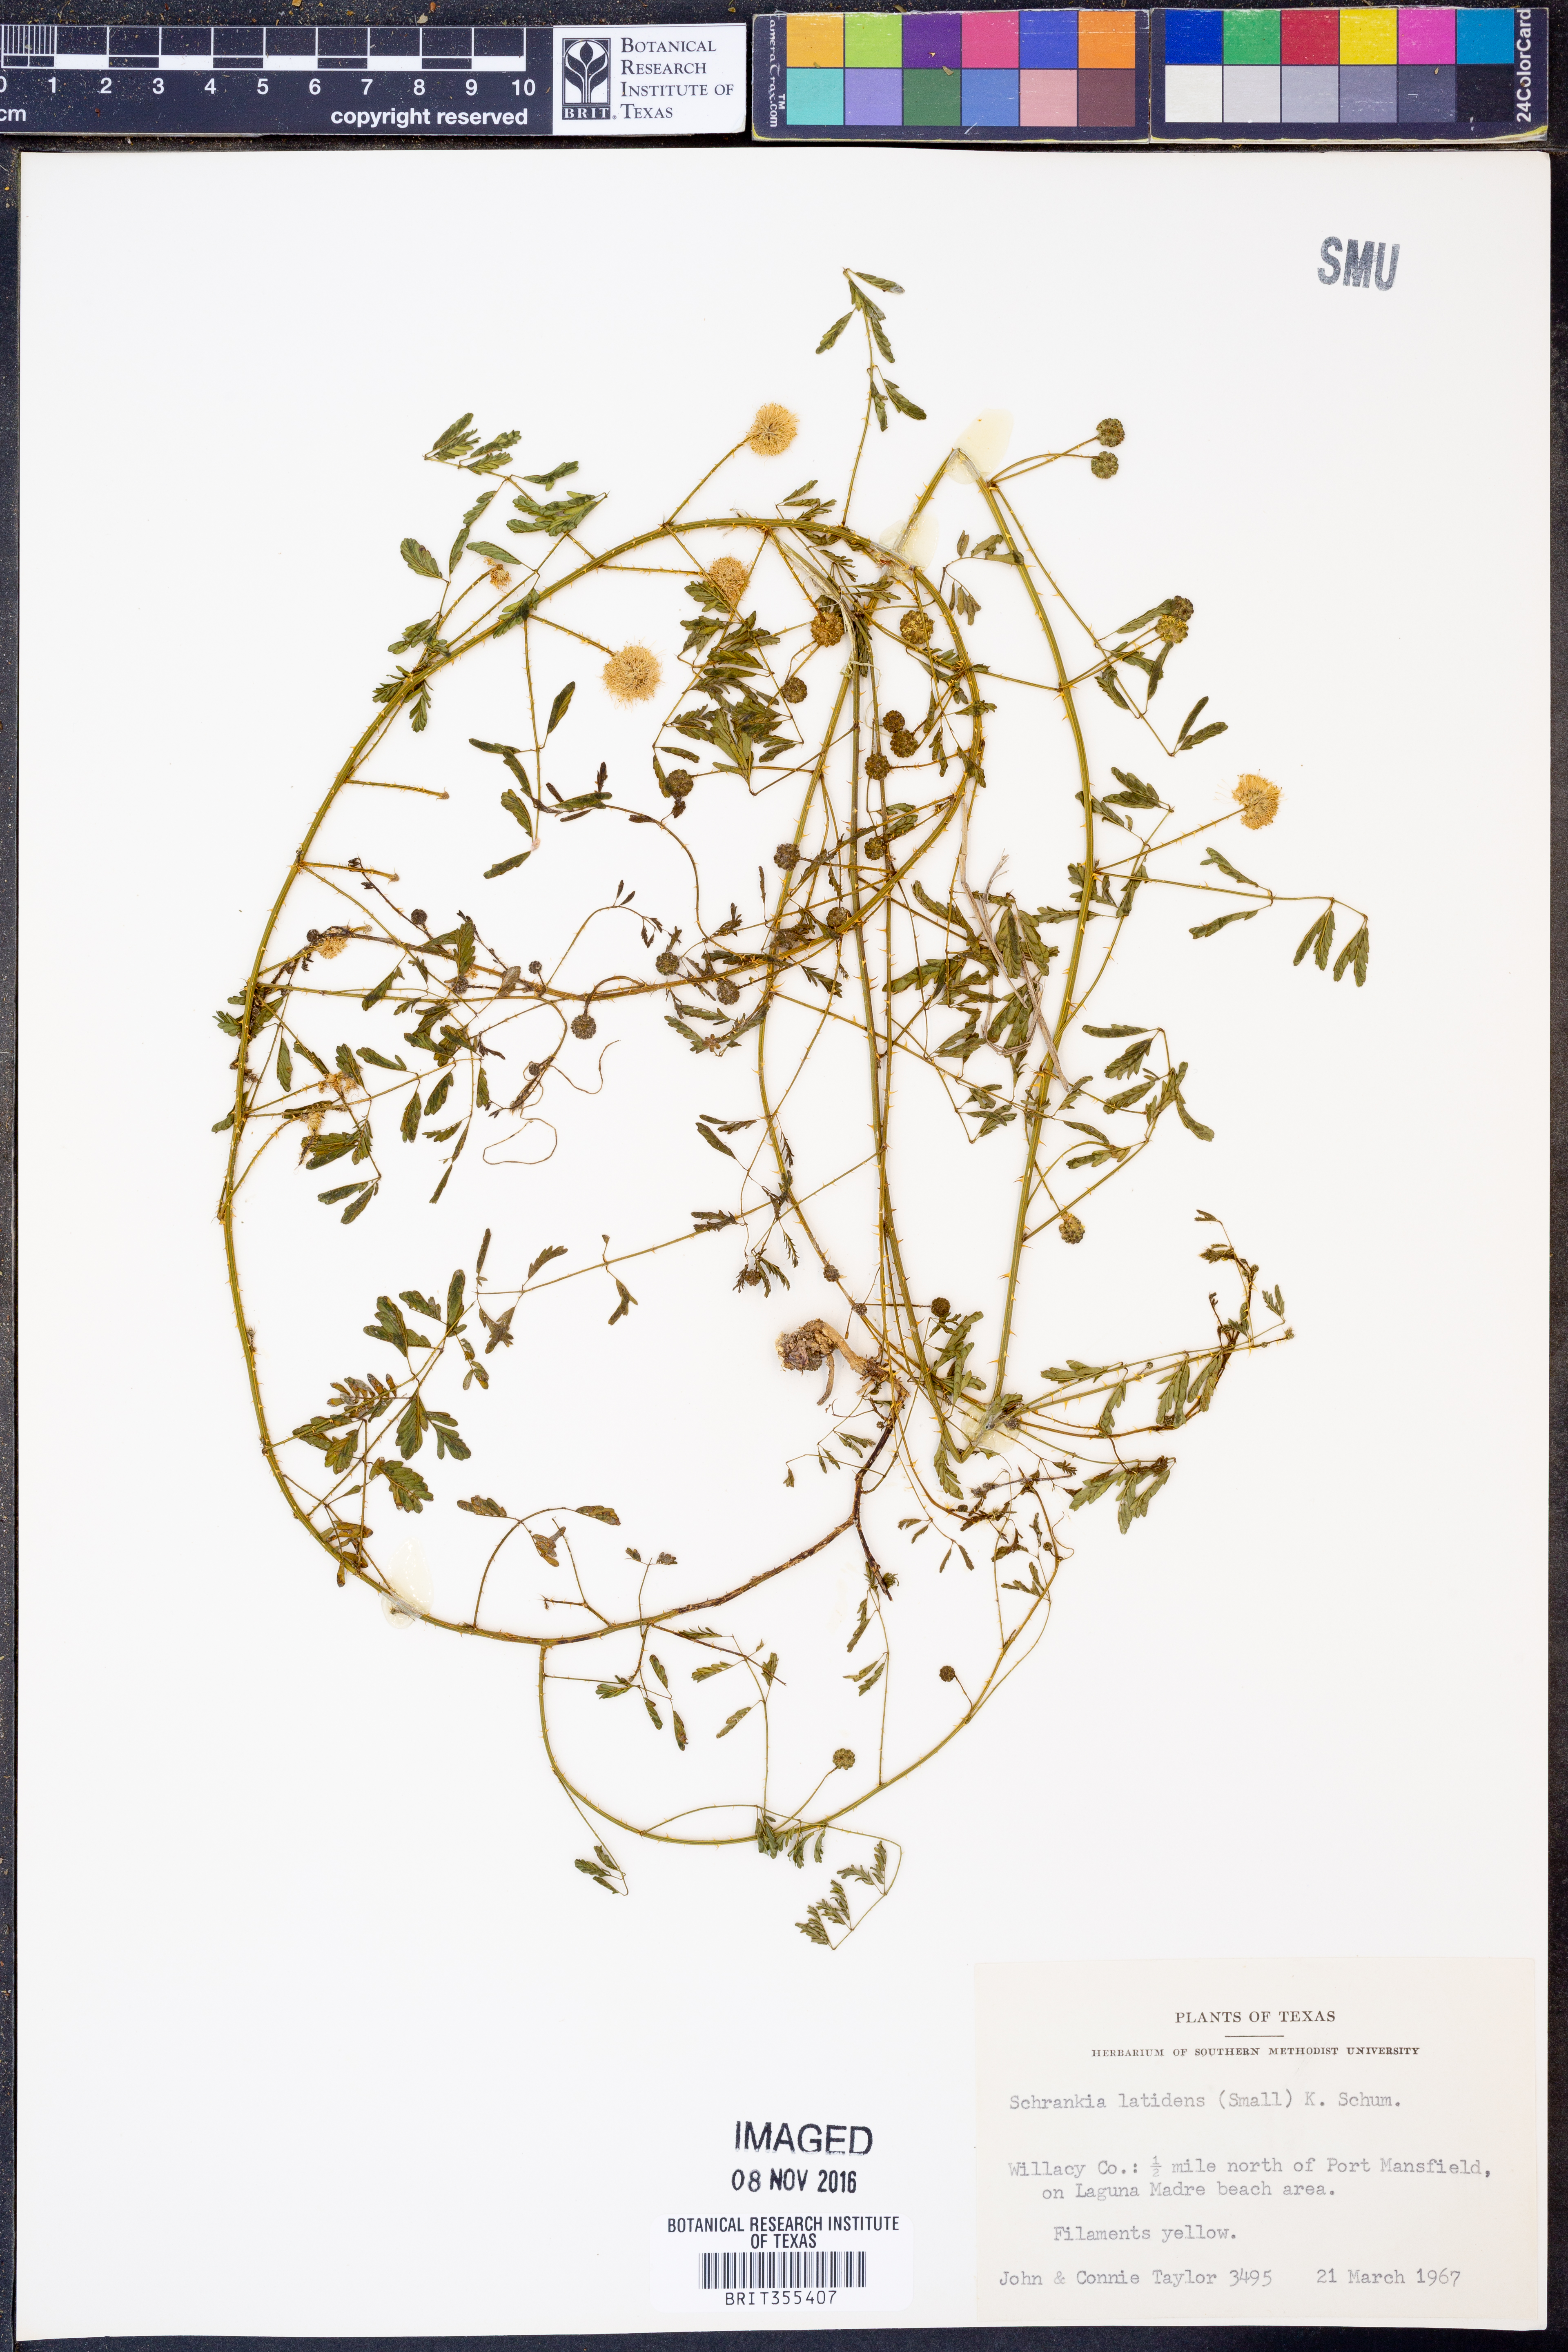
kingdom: Plantae
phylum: Tracheophyta
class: Magnoliopsida
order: Fabales
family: Fabaceae
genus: Mimosa
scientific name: Mimosa quadrivalvis
